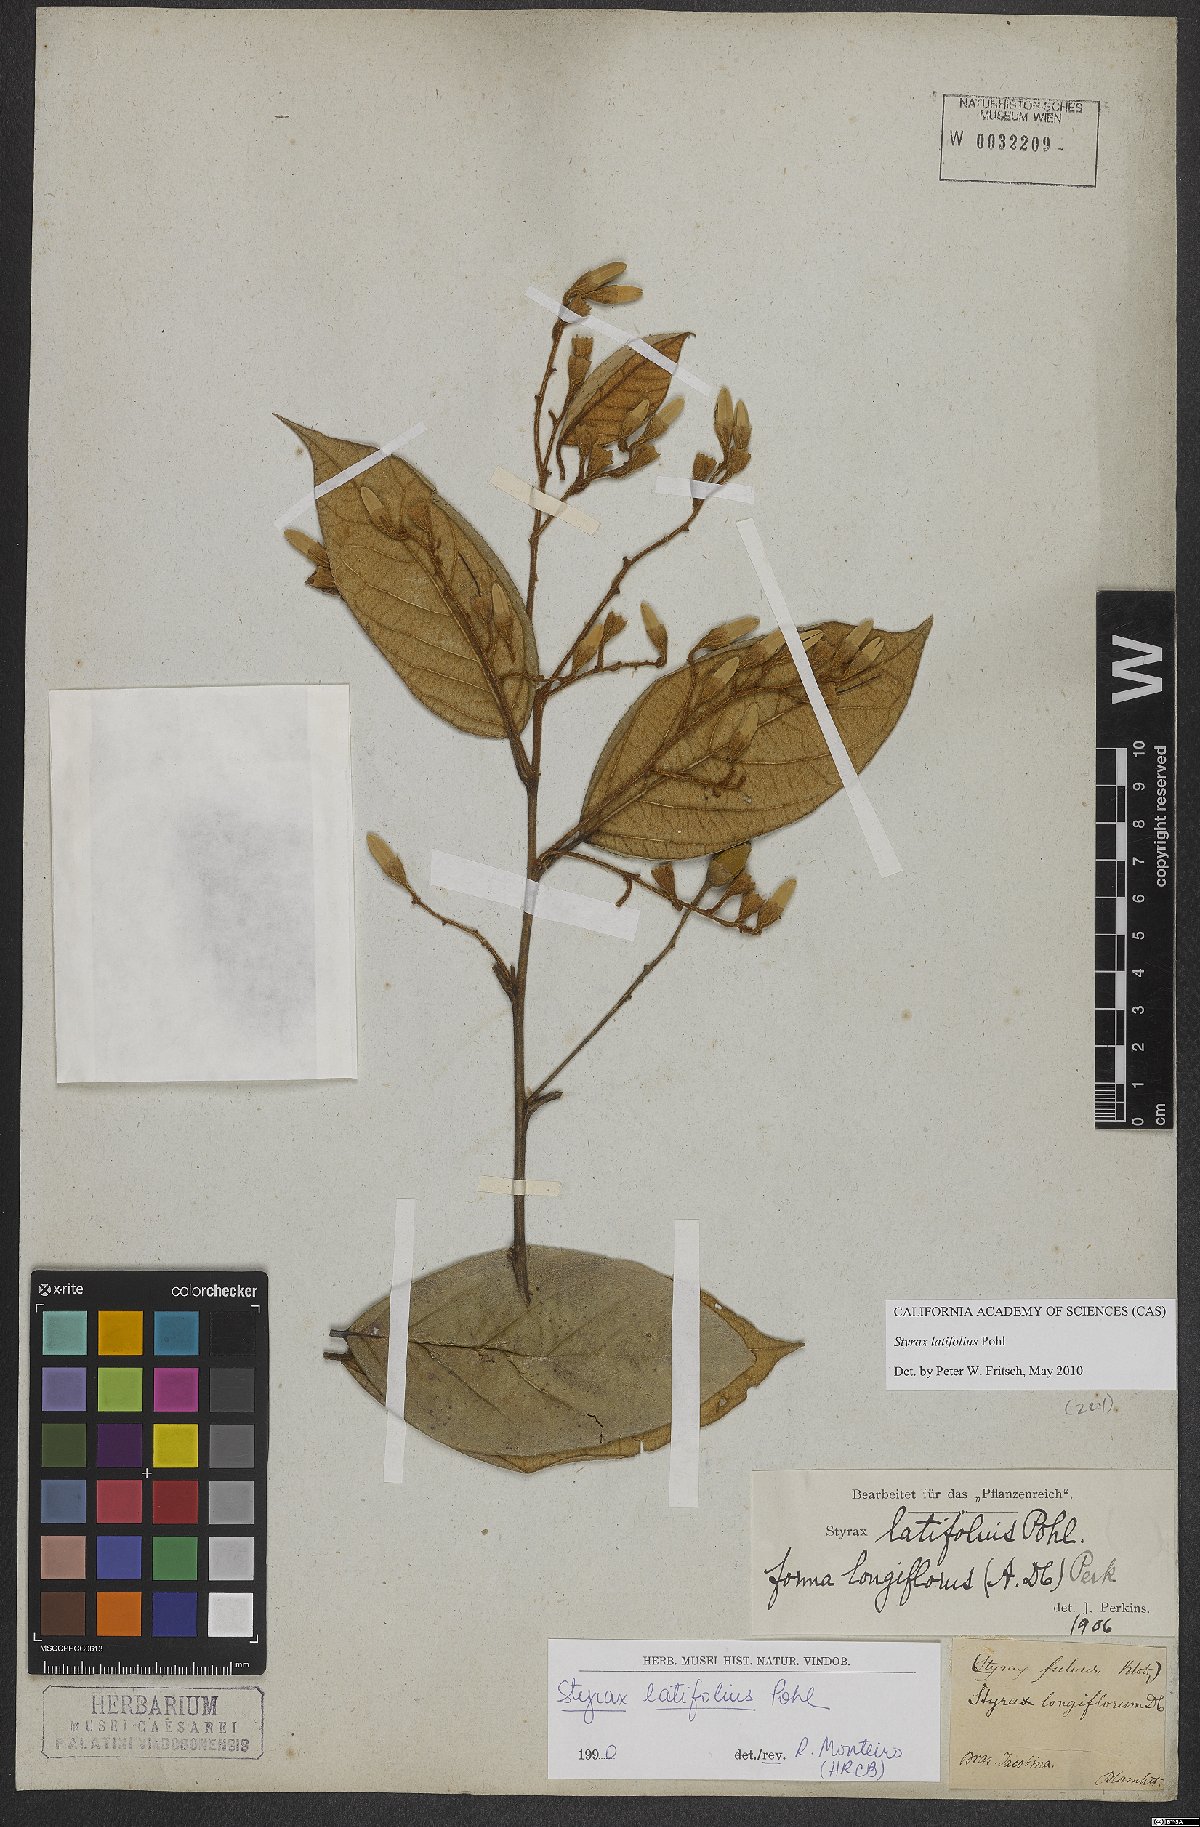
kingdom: Plantae
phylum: Tracheophyta
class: Magnoliopsida
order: Ericales
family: Styracaceae
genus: Styrax
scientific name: Styrax latifolius
